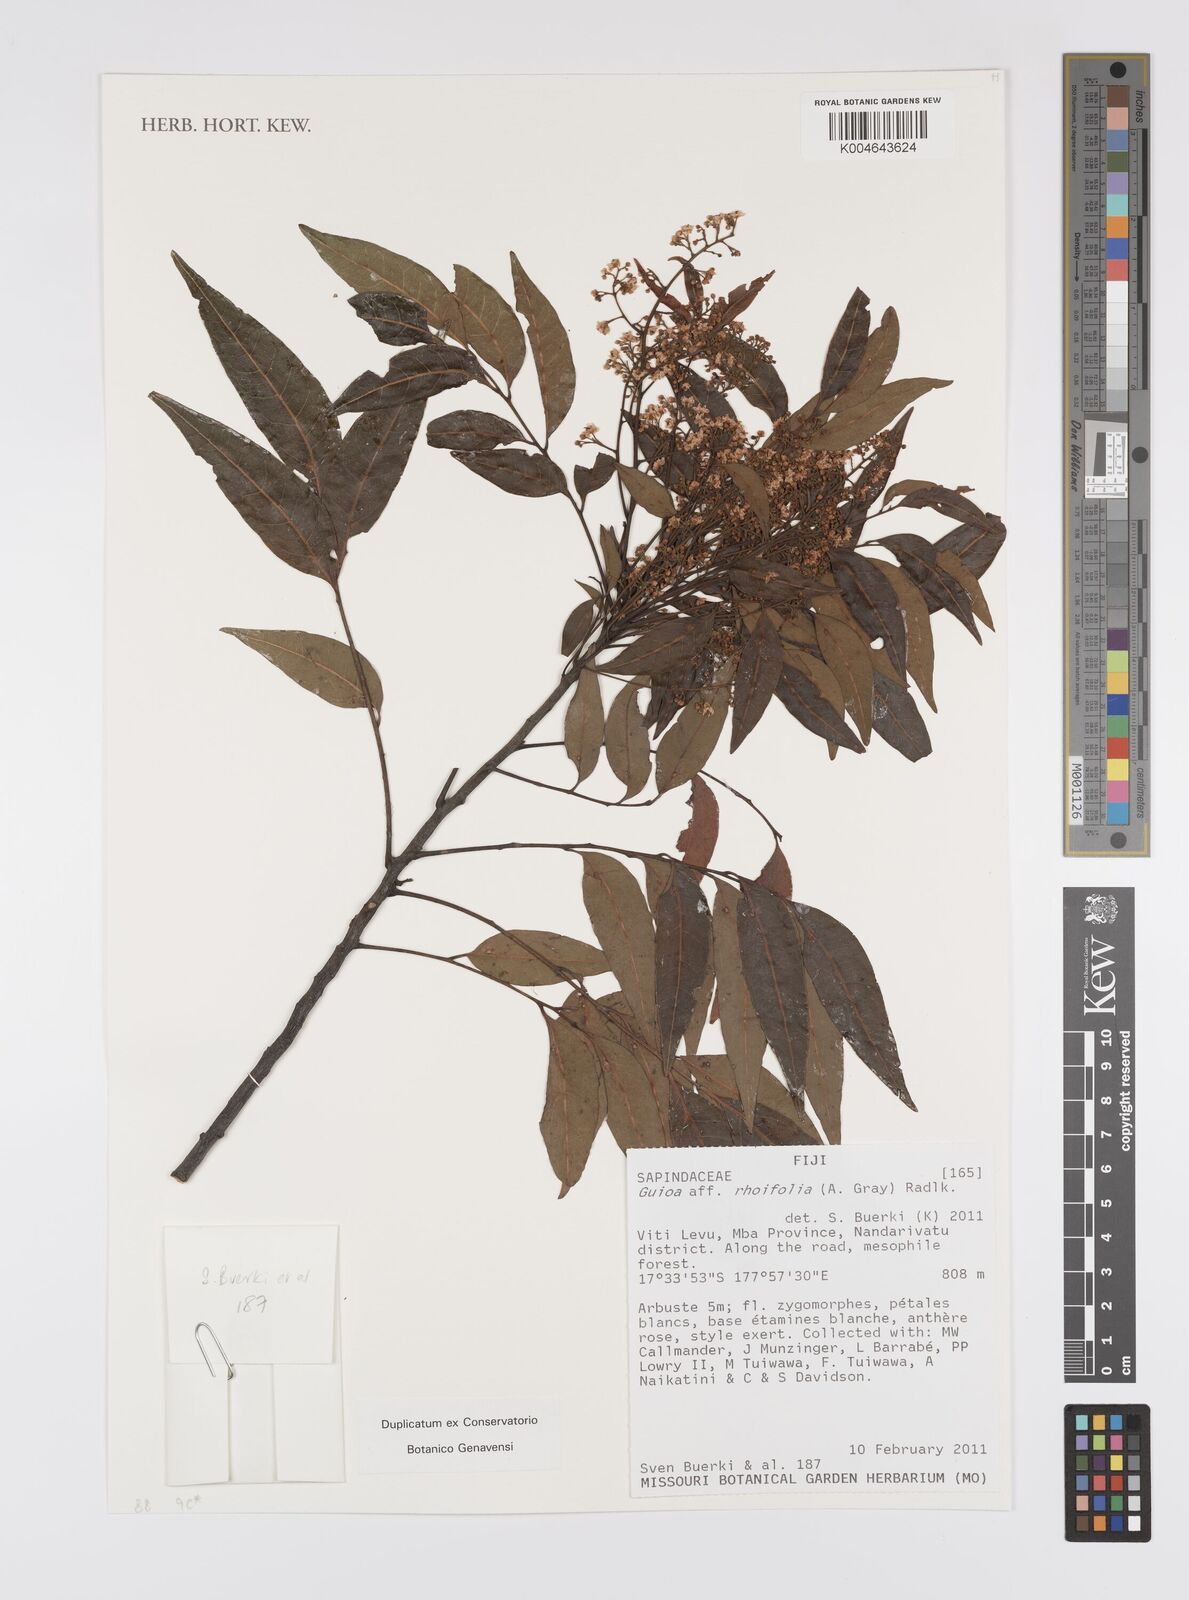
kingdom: Plantae
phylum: Tracheophyta
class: Magnoliopsida
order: Sapindales
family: Sapindaceae
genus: Guioa
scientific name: Guioa rhoifolia
